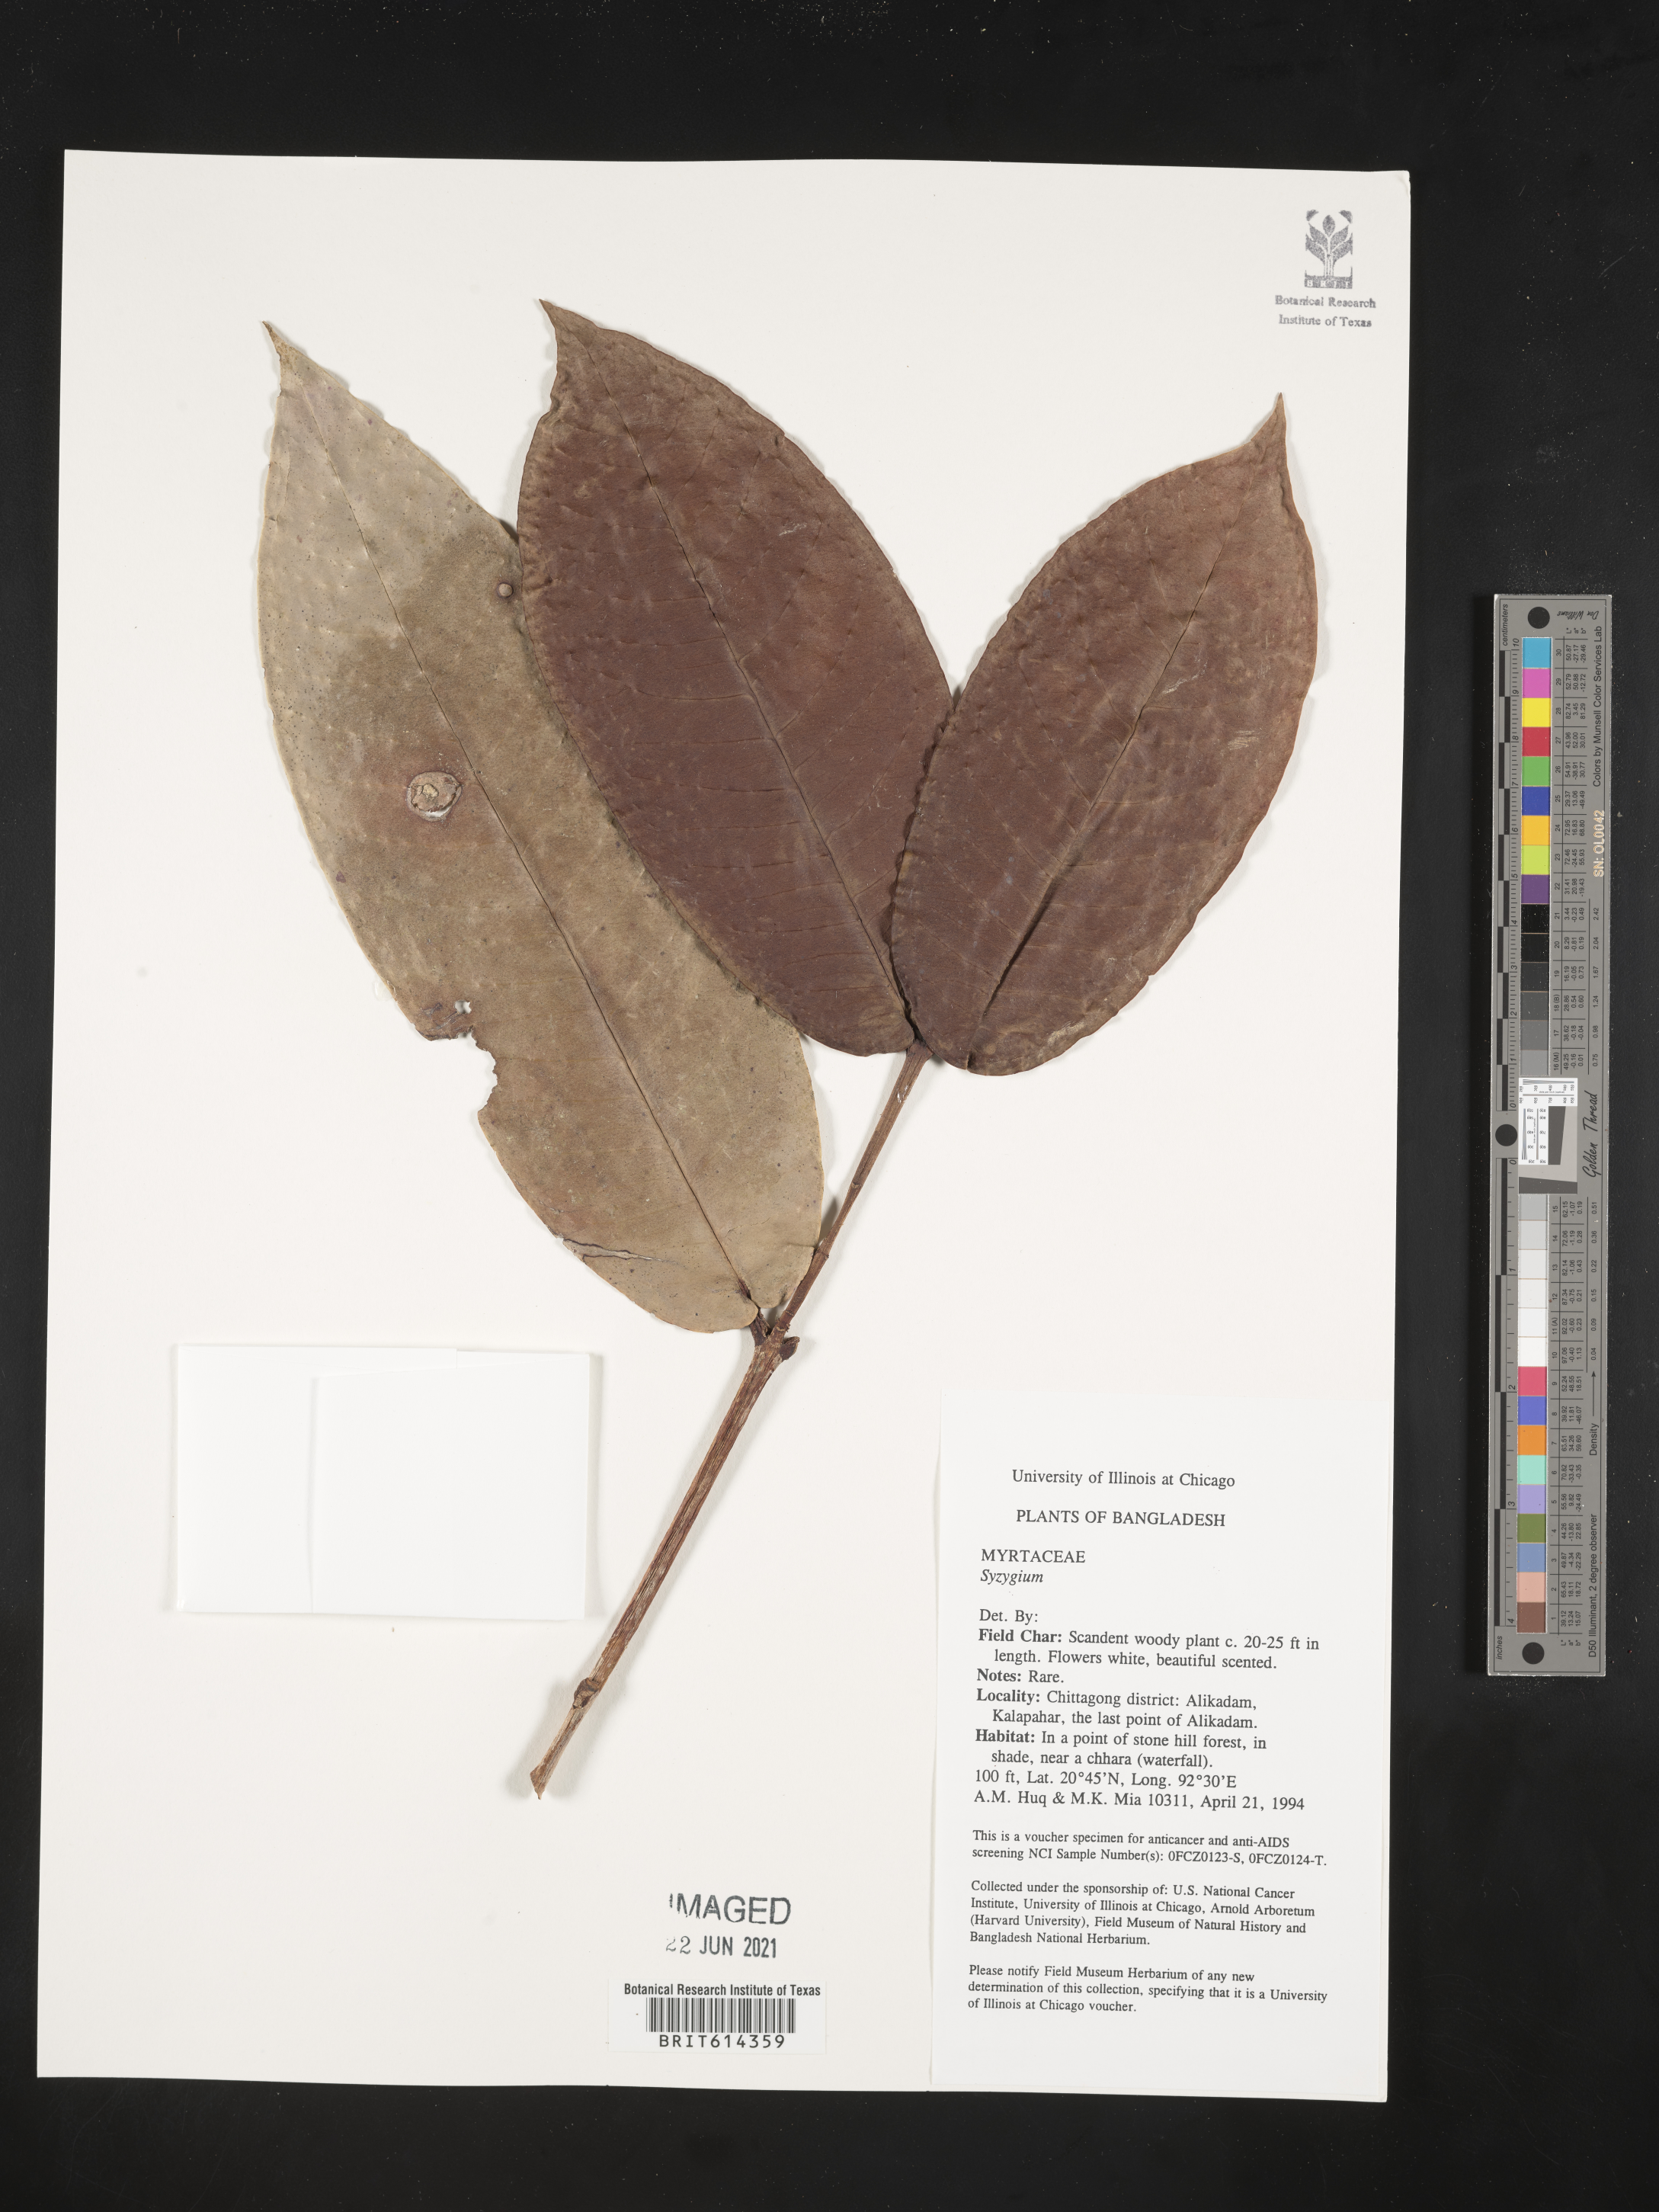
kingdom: Plantae
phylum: Tracheophyta
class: Magnoliopsida
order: Myrtales
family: Myrtaceae
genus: Syzygium
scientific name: Syzygium
